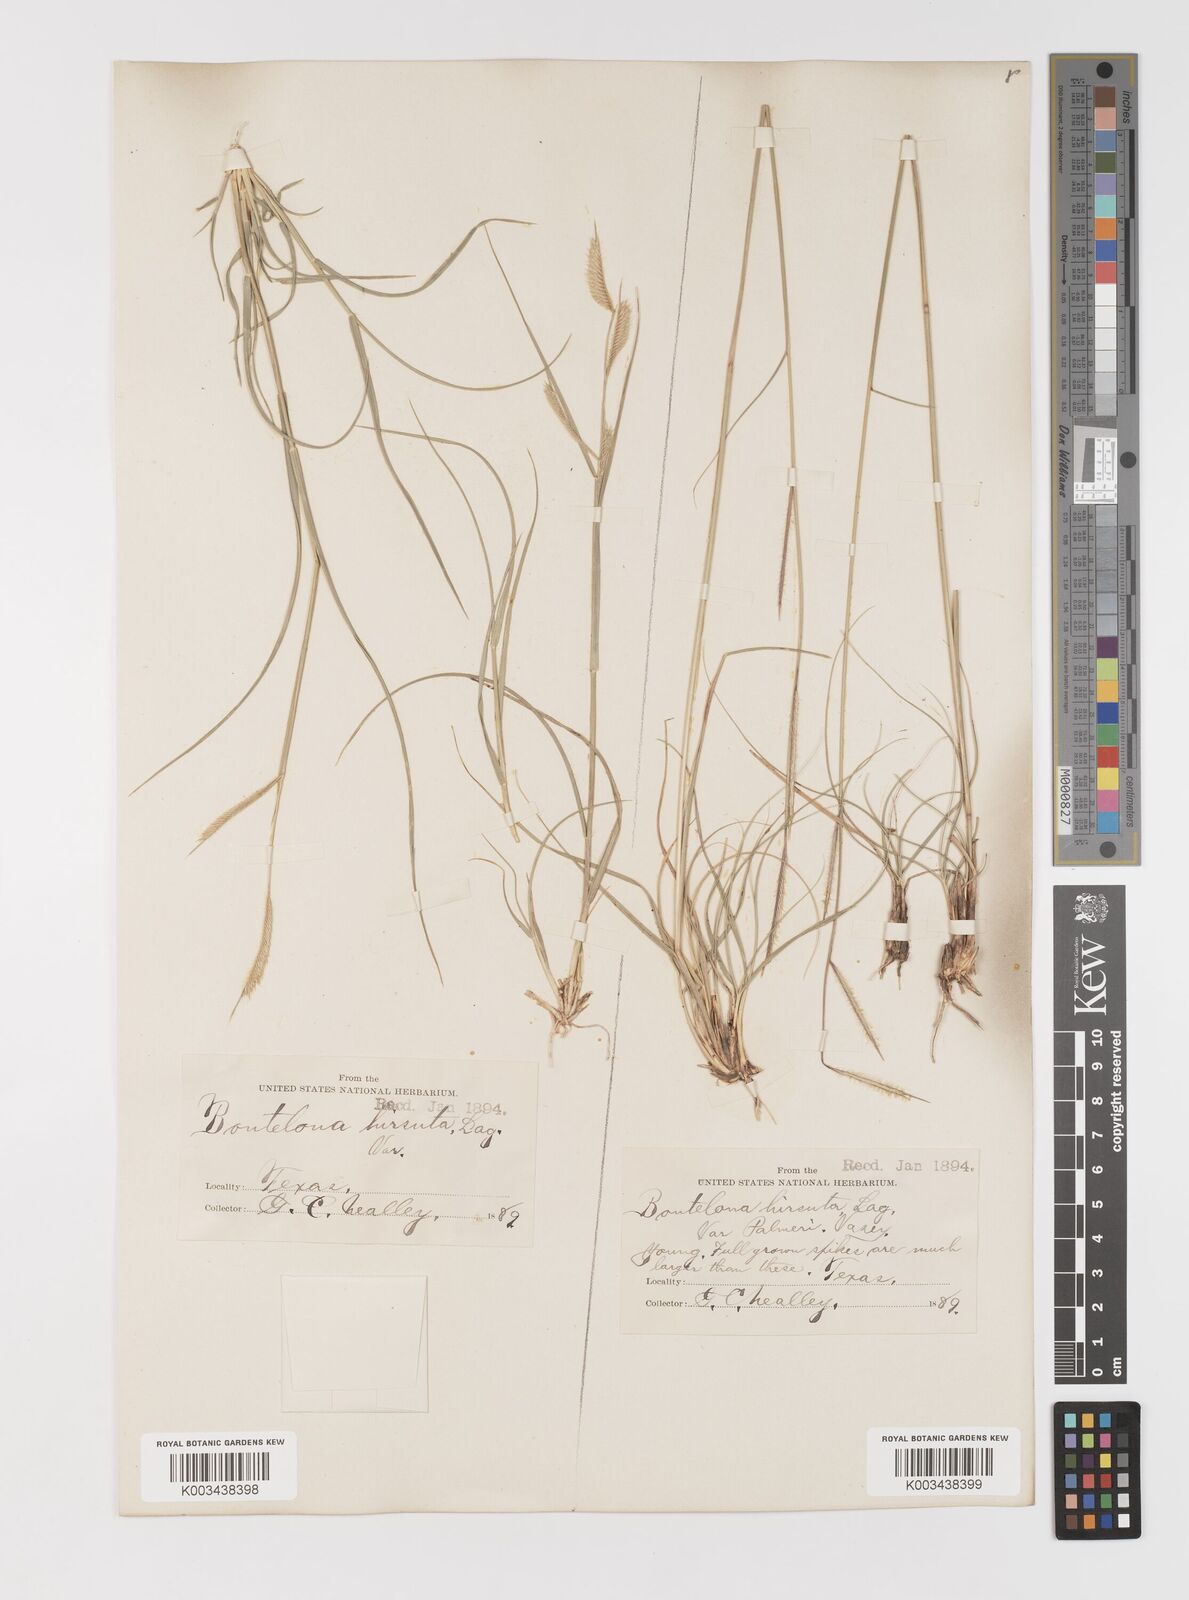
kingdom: Plantae
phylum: Tracheophyta
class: Liliopsida
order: Poales
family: Poaceae
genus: Bouteloua
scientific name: Bouteloua hirsuta
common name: Hairy grama
